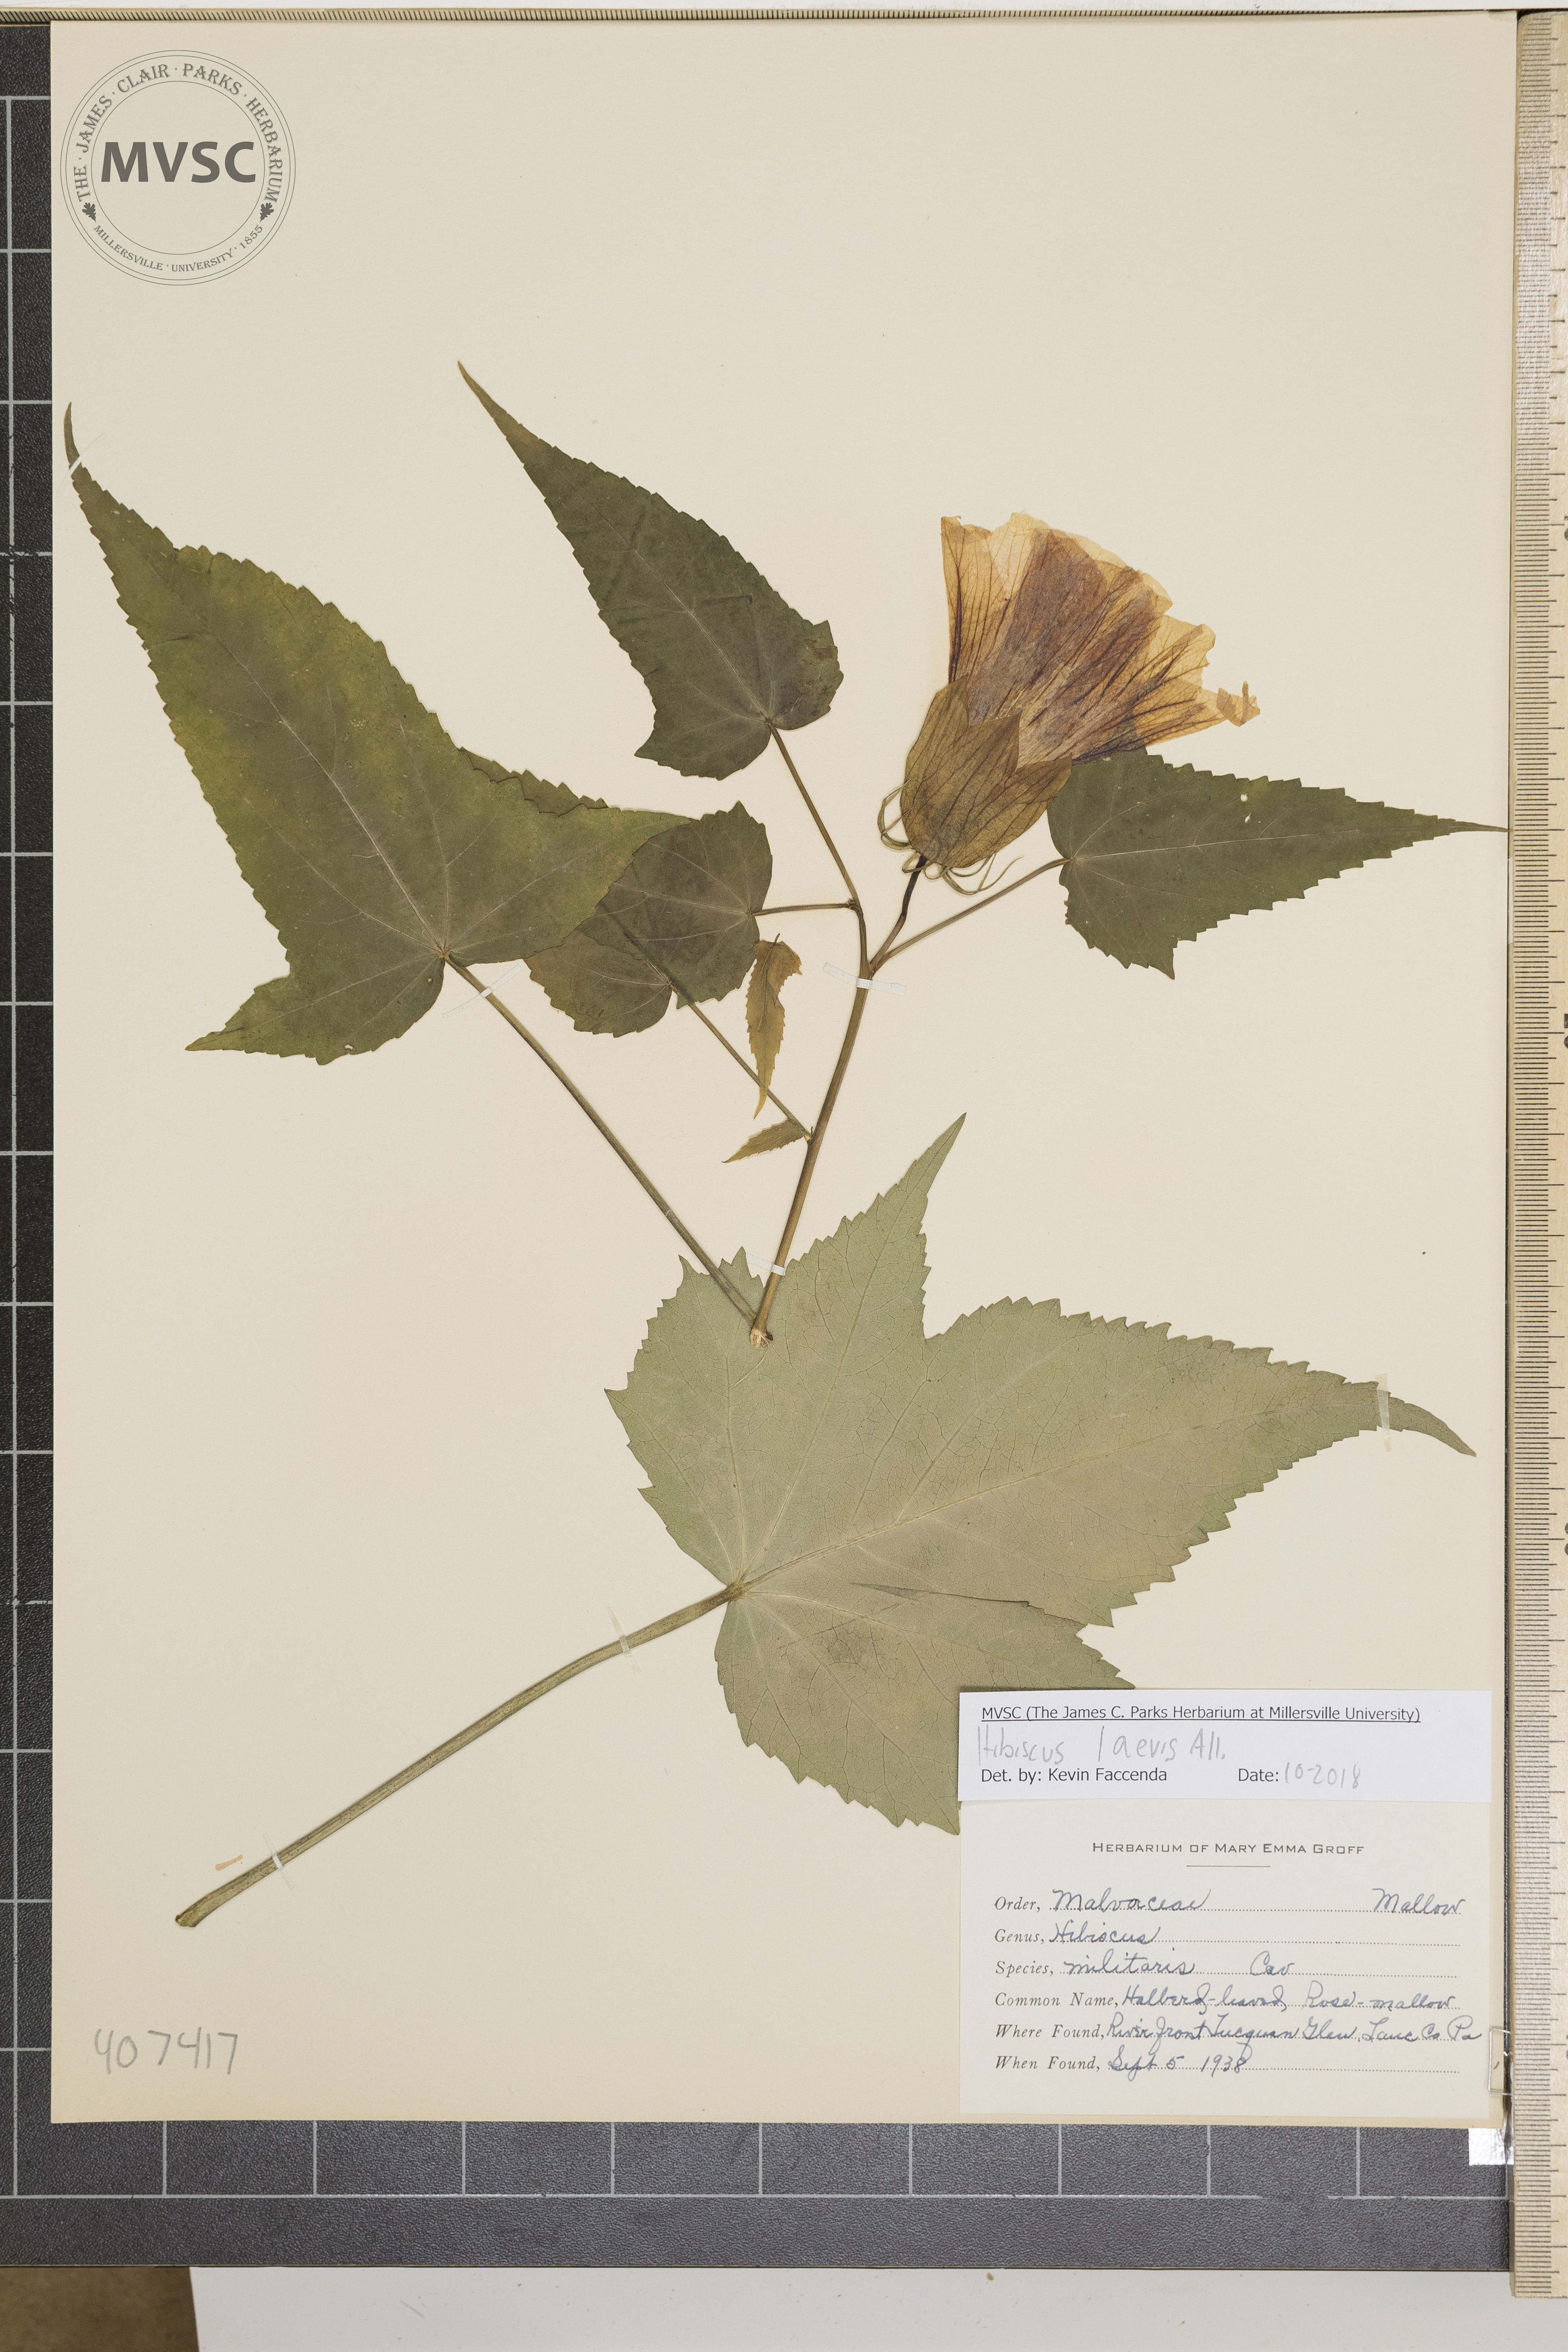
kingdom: Plantae
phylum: Tracheophyta
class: Magnoliopsida
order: Malvales
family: Malvaceae
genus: Hibiscus
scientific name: Hibiscus laevis
